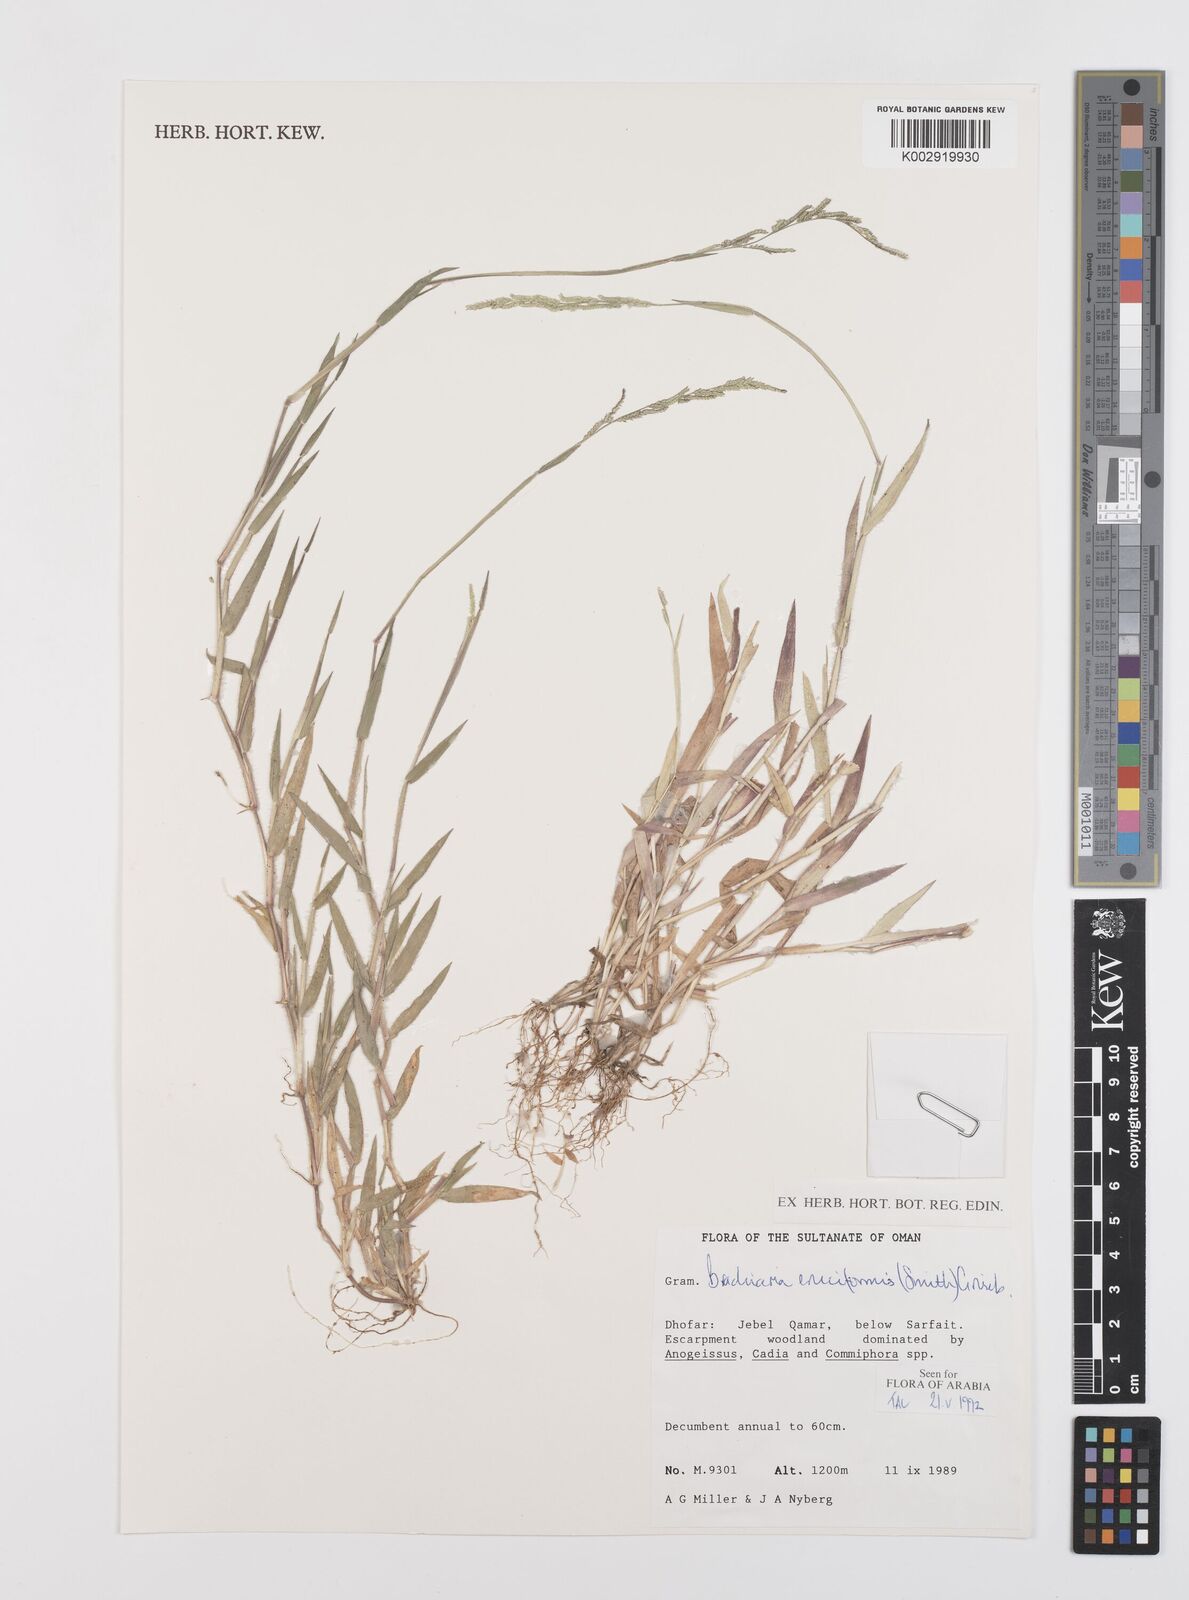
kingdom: Plantae
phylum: Tracheophyta
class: Liliopsida
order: Poales
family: Poaceae
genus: Moorochloa
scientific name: Moorochloa eruciformis
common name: Sweet signalgrass
